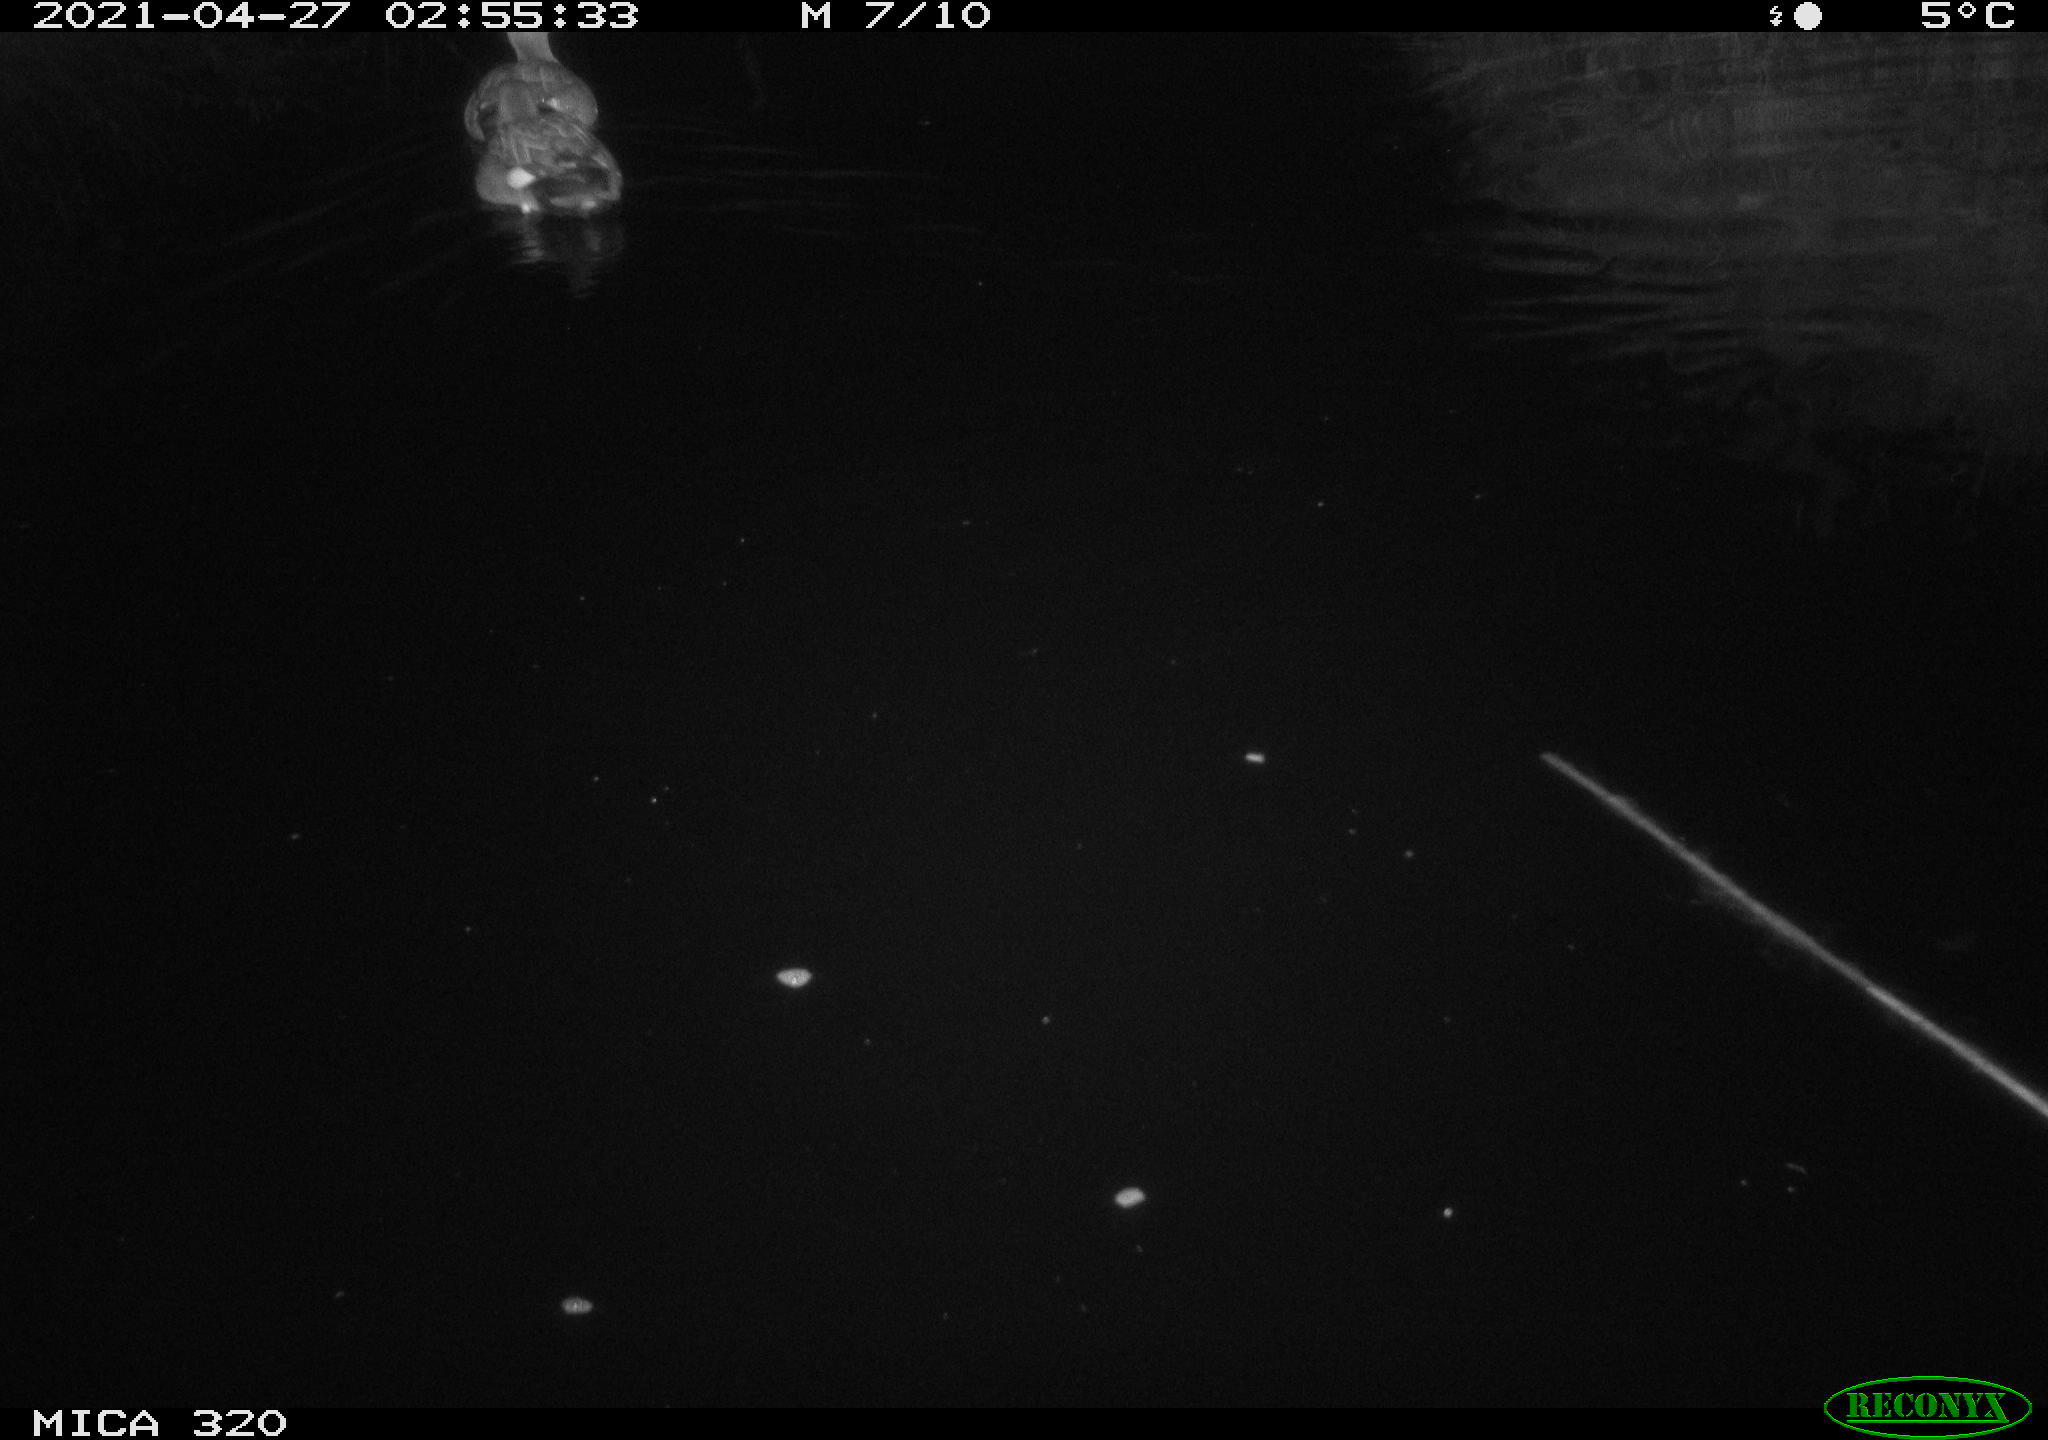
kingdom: Animalia
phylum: Chordata
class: Aves
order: Anseriformes
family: Anatidae
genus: Mareca
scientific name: Mareca strepera
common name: Gadwall
